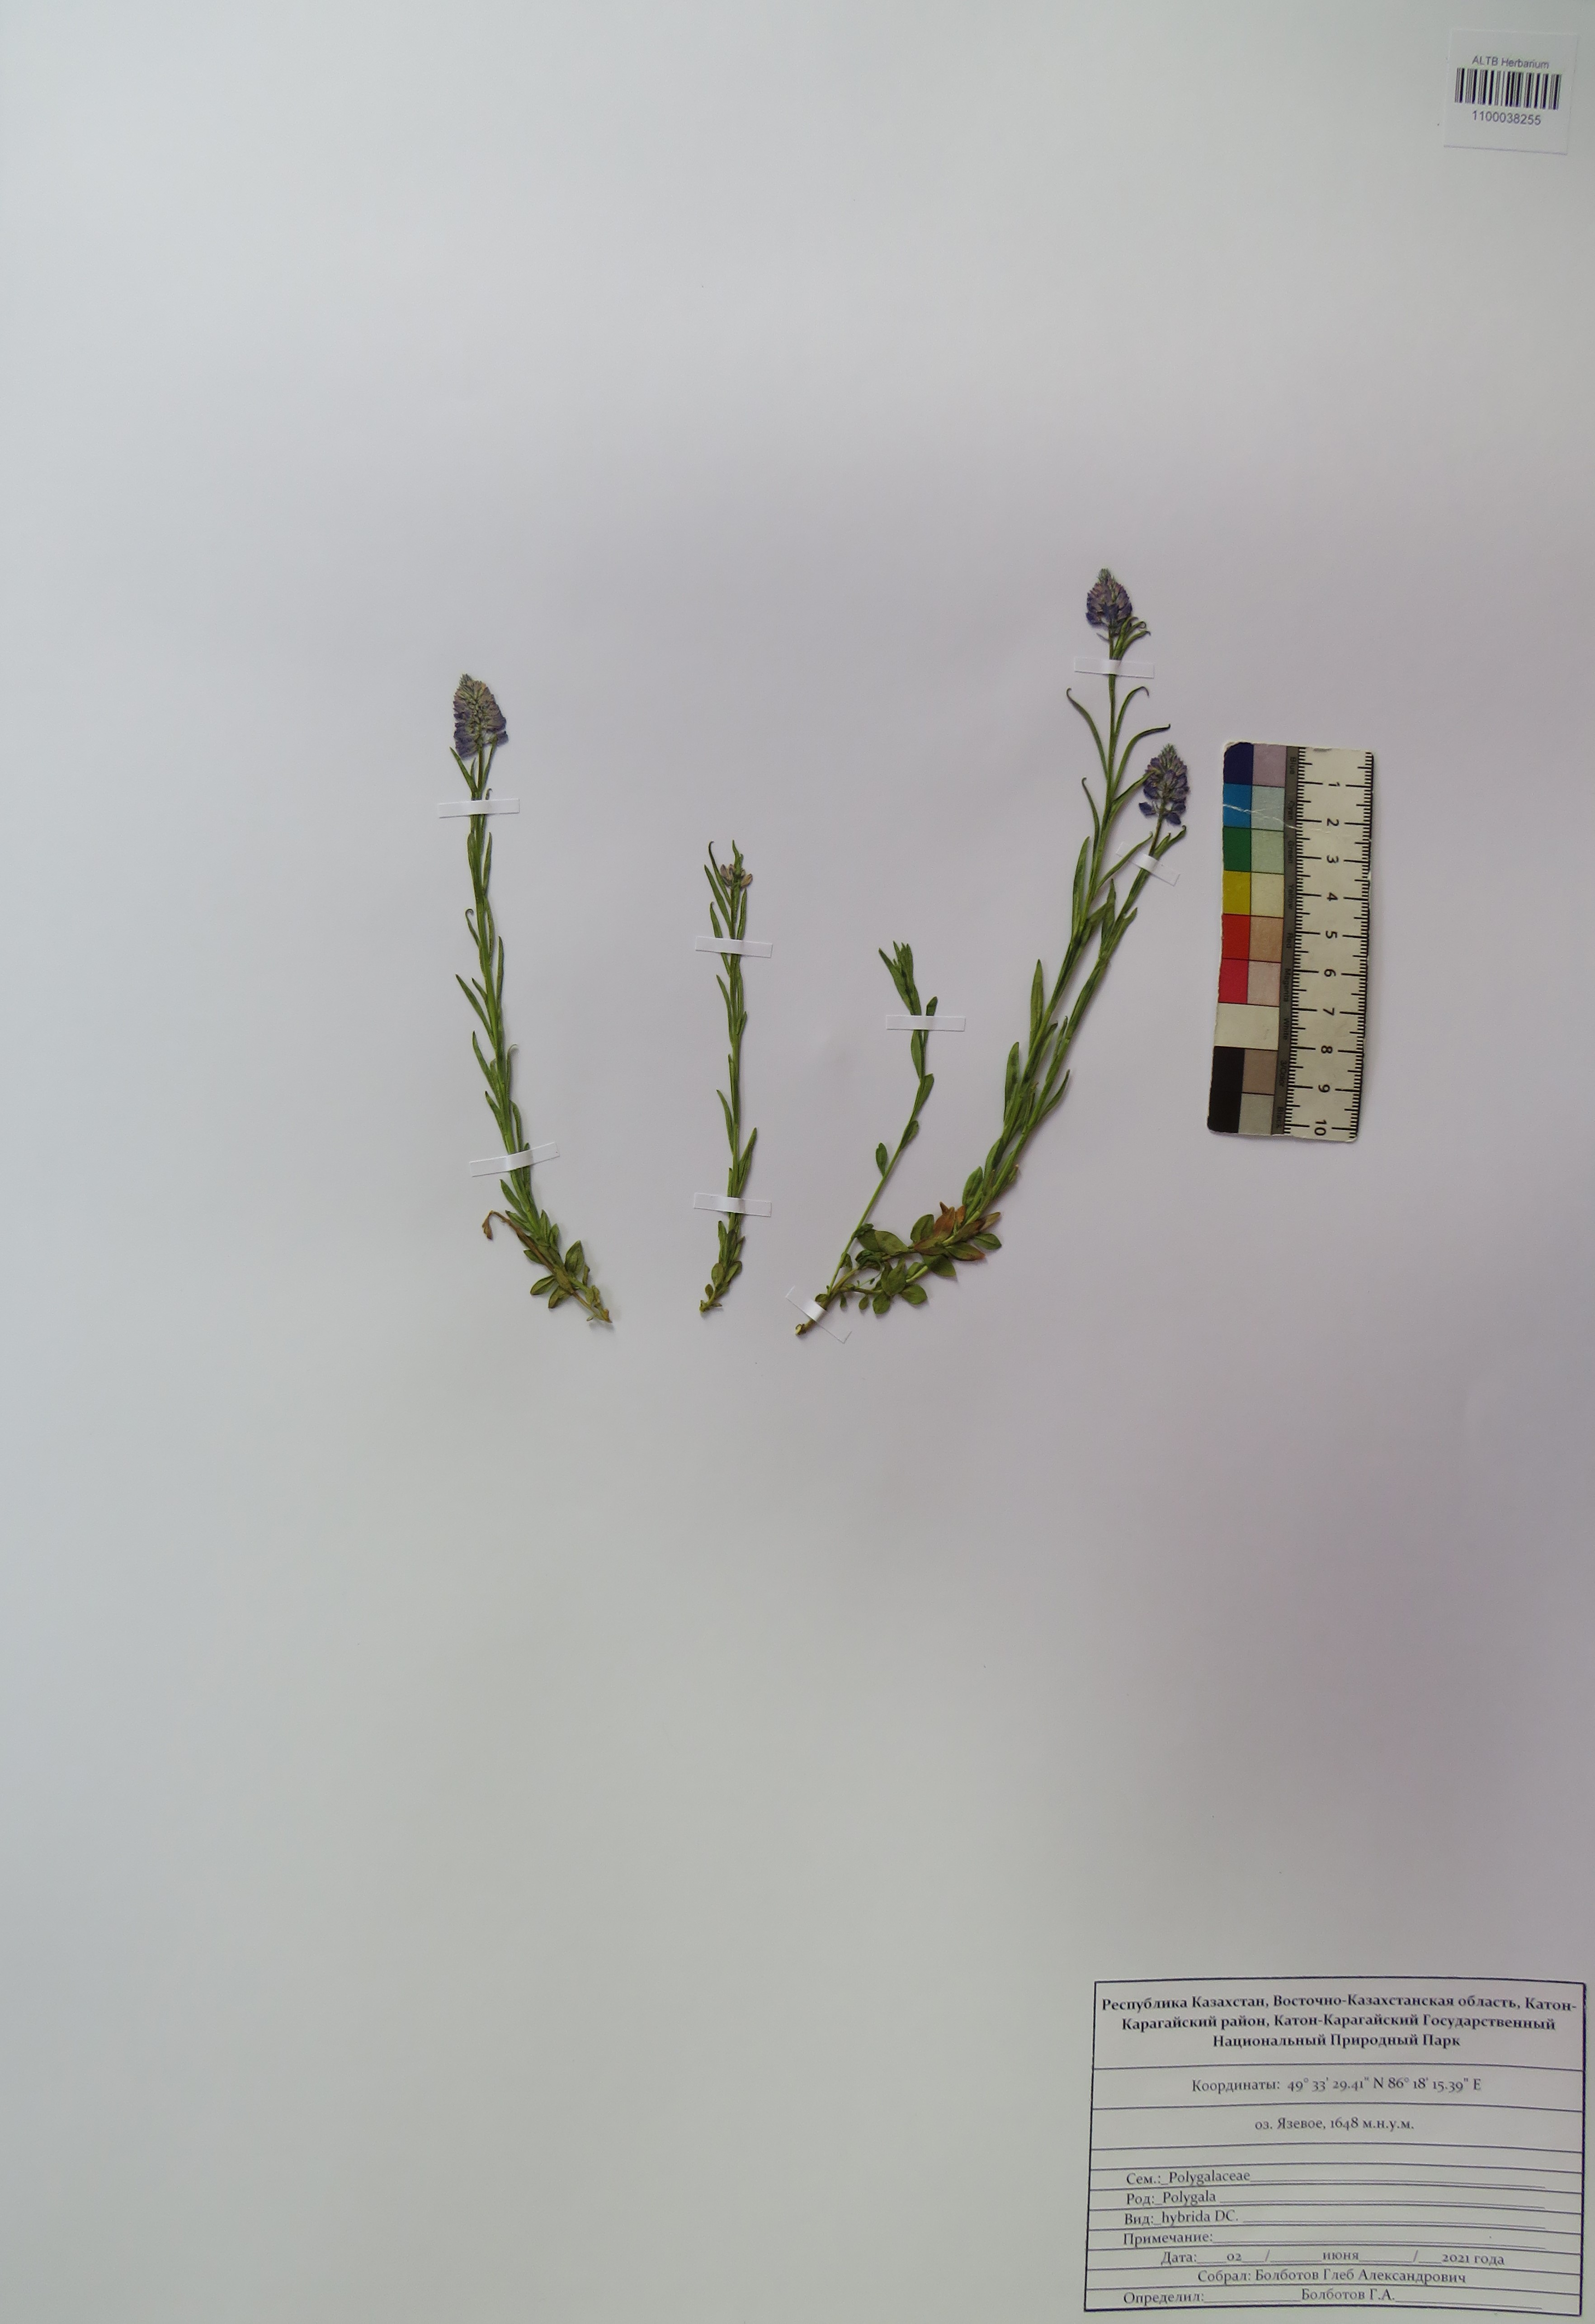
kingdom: Plantae
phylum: Tracheophyta
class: Magnoliopsida
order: Fabales
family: Polygalaceae
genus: Polygala
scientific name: Polygala comosa
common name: Tufted milkwort
